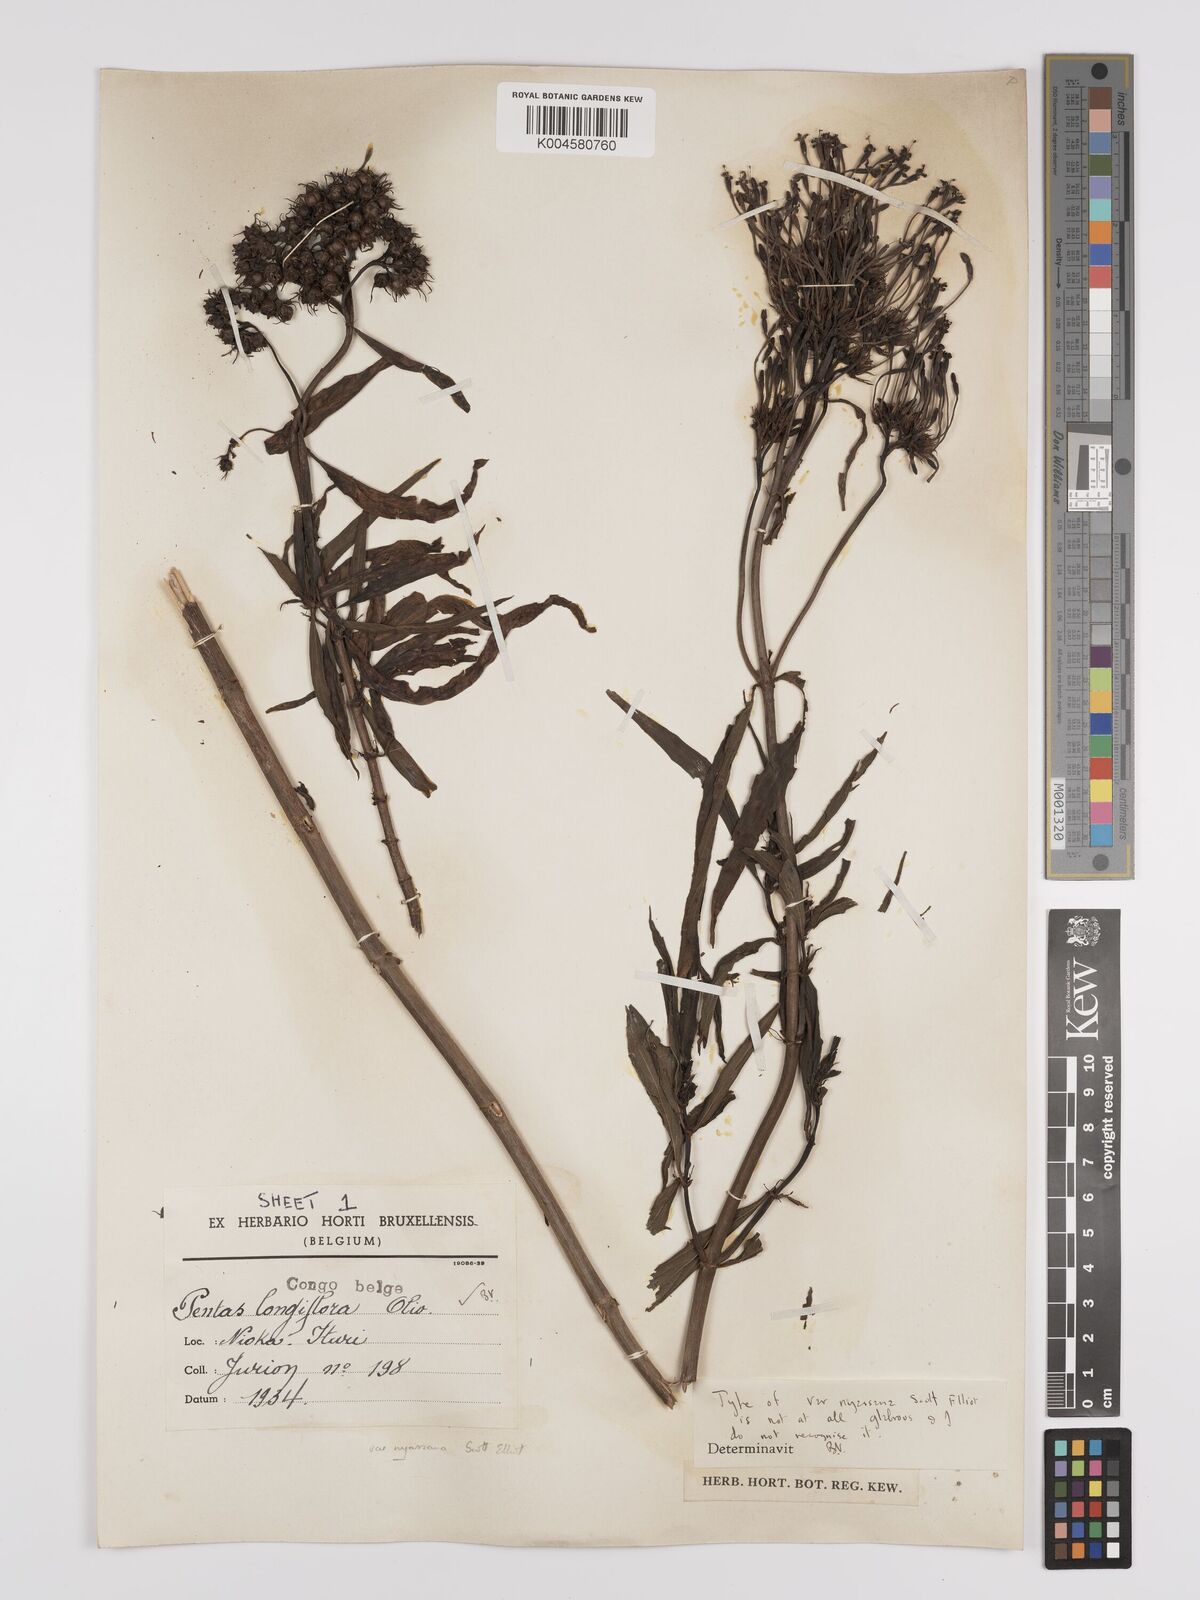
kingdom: Plantae
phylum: Tracheophyta
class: Magnoliopsida
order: Gentianales
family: Rubiaceae
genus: Dolichopentas
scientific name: Dolichopentas longiflora
